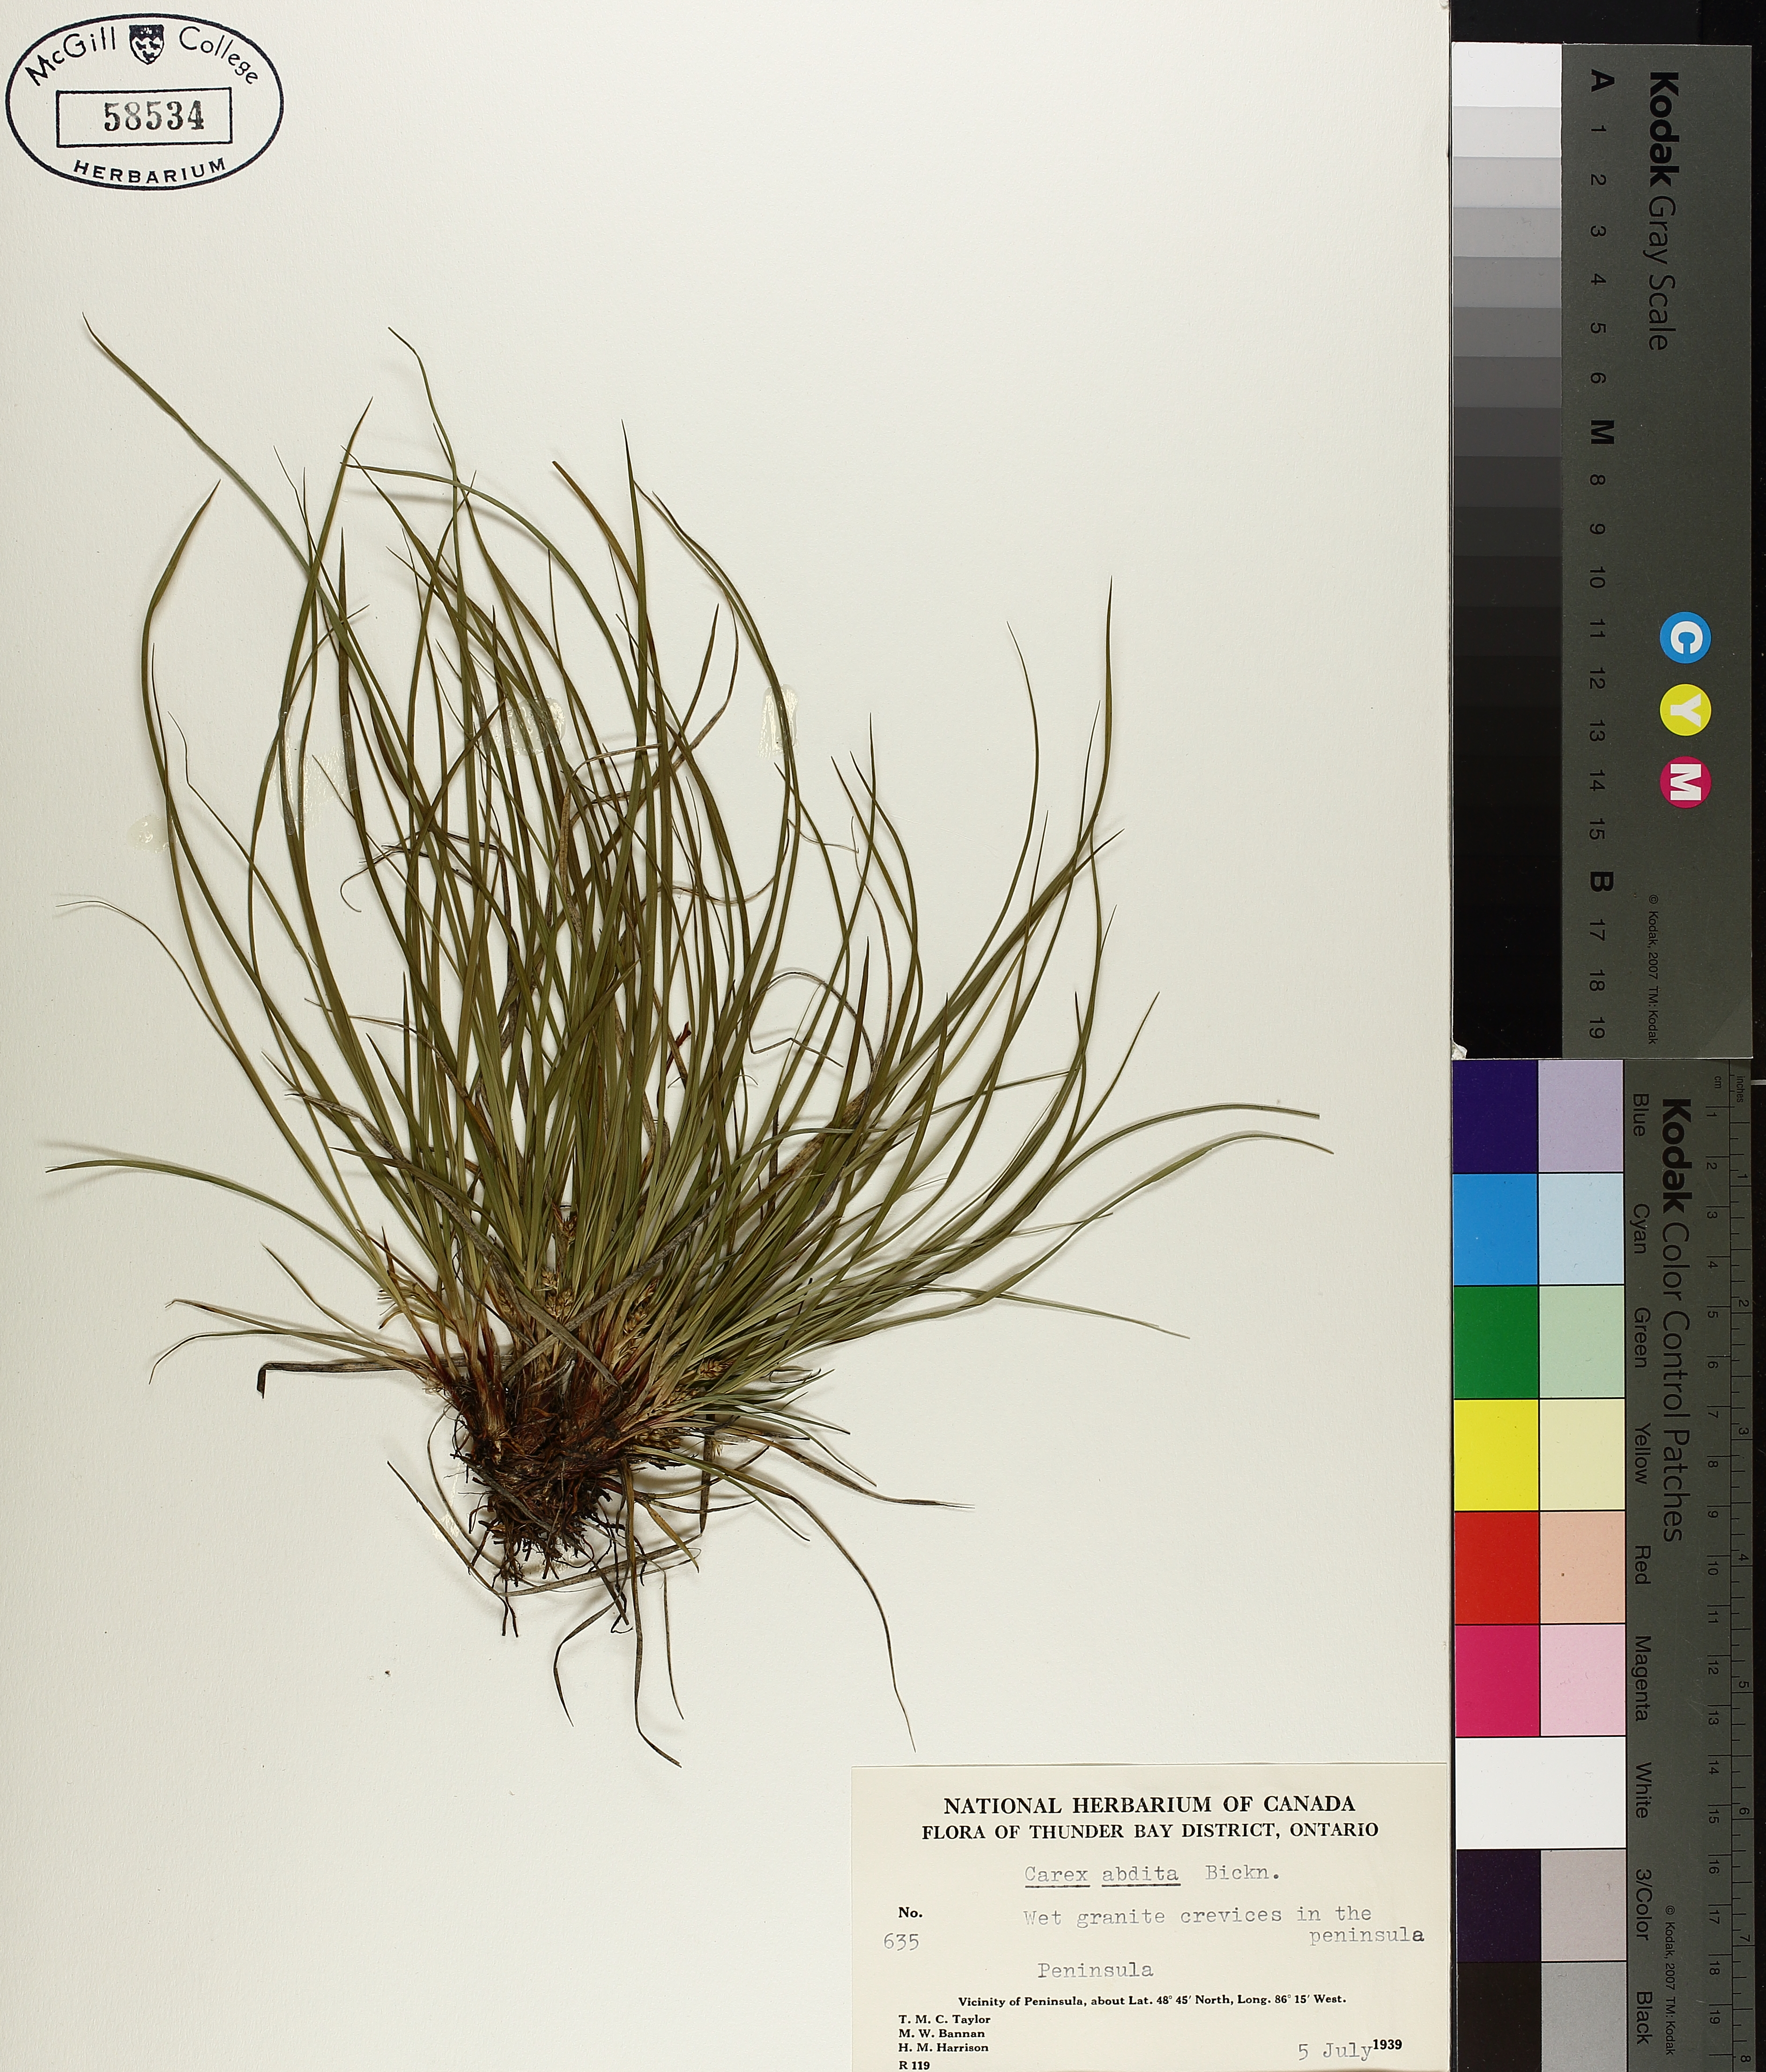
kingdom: Plantae
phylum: Tracheophyta
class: Liliopsida
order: Poales
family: Cyperaceae
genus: Carex
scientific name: Carex umbellata
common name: Early oak sedge
